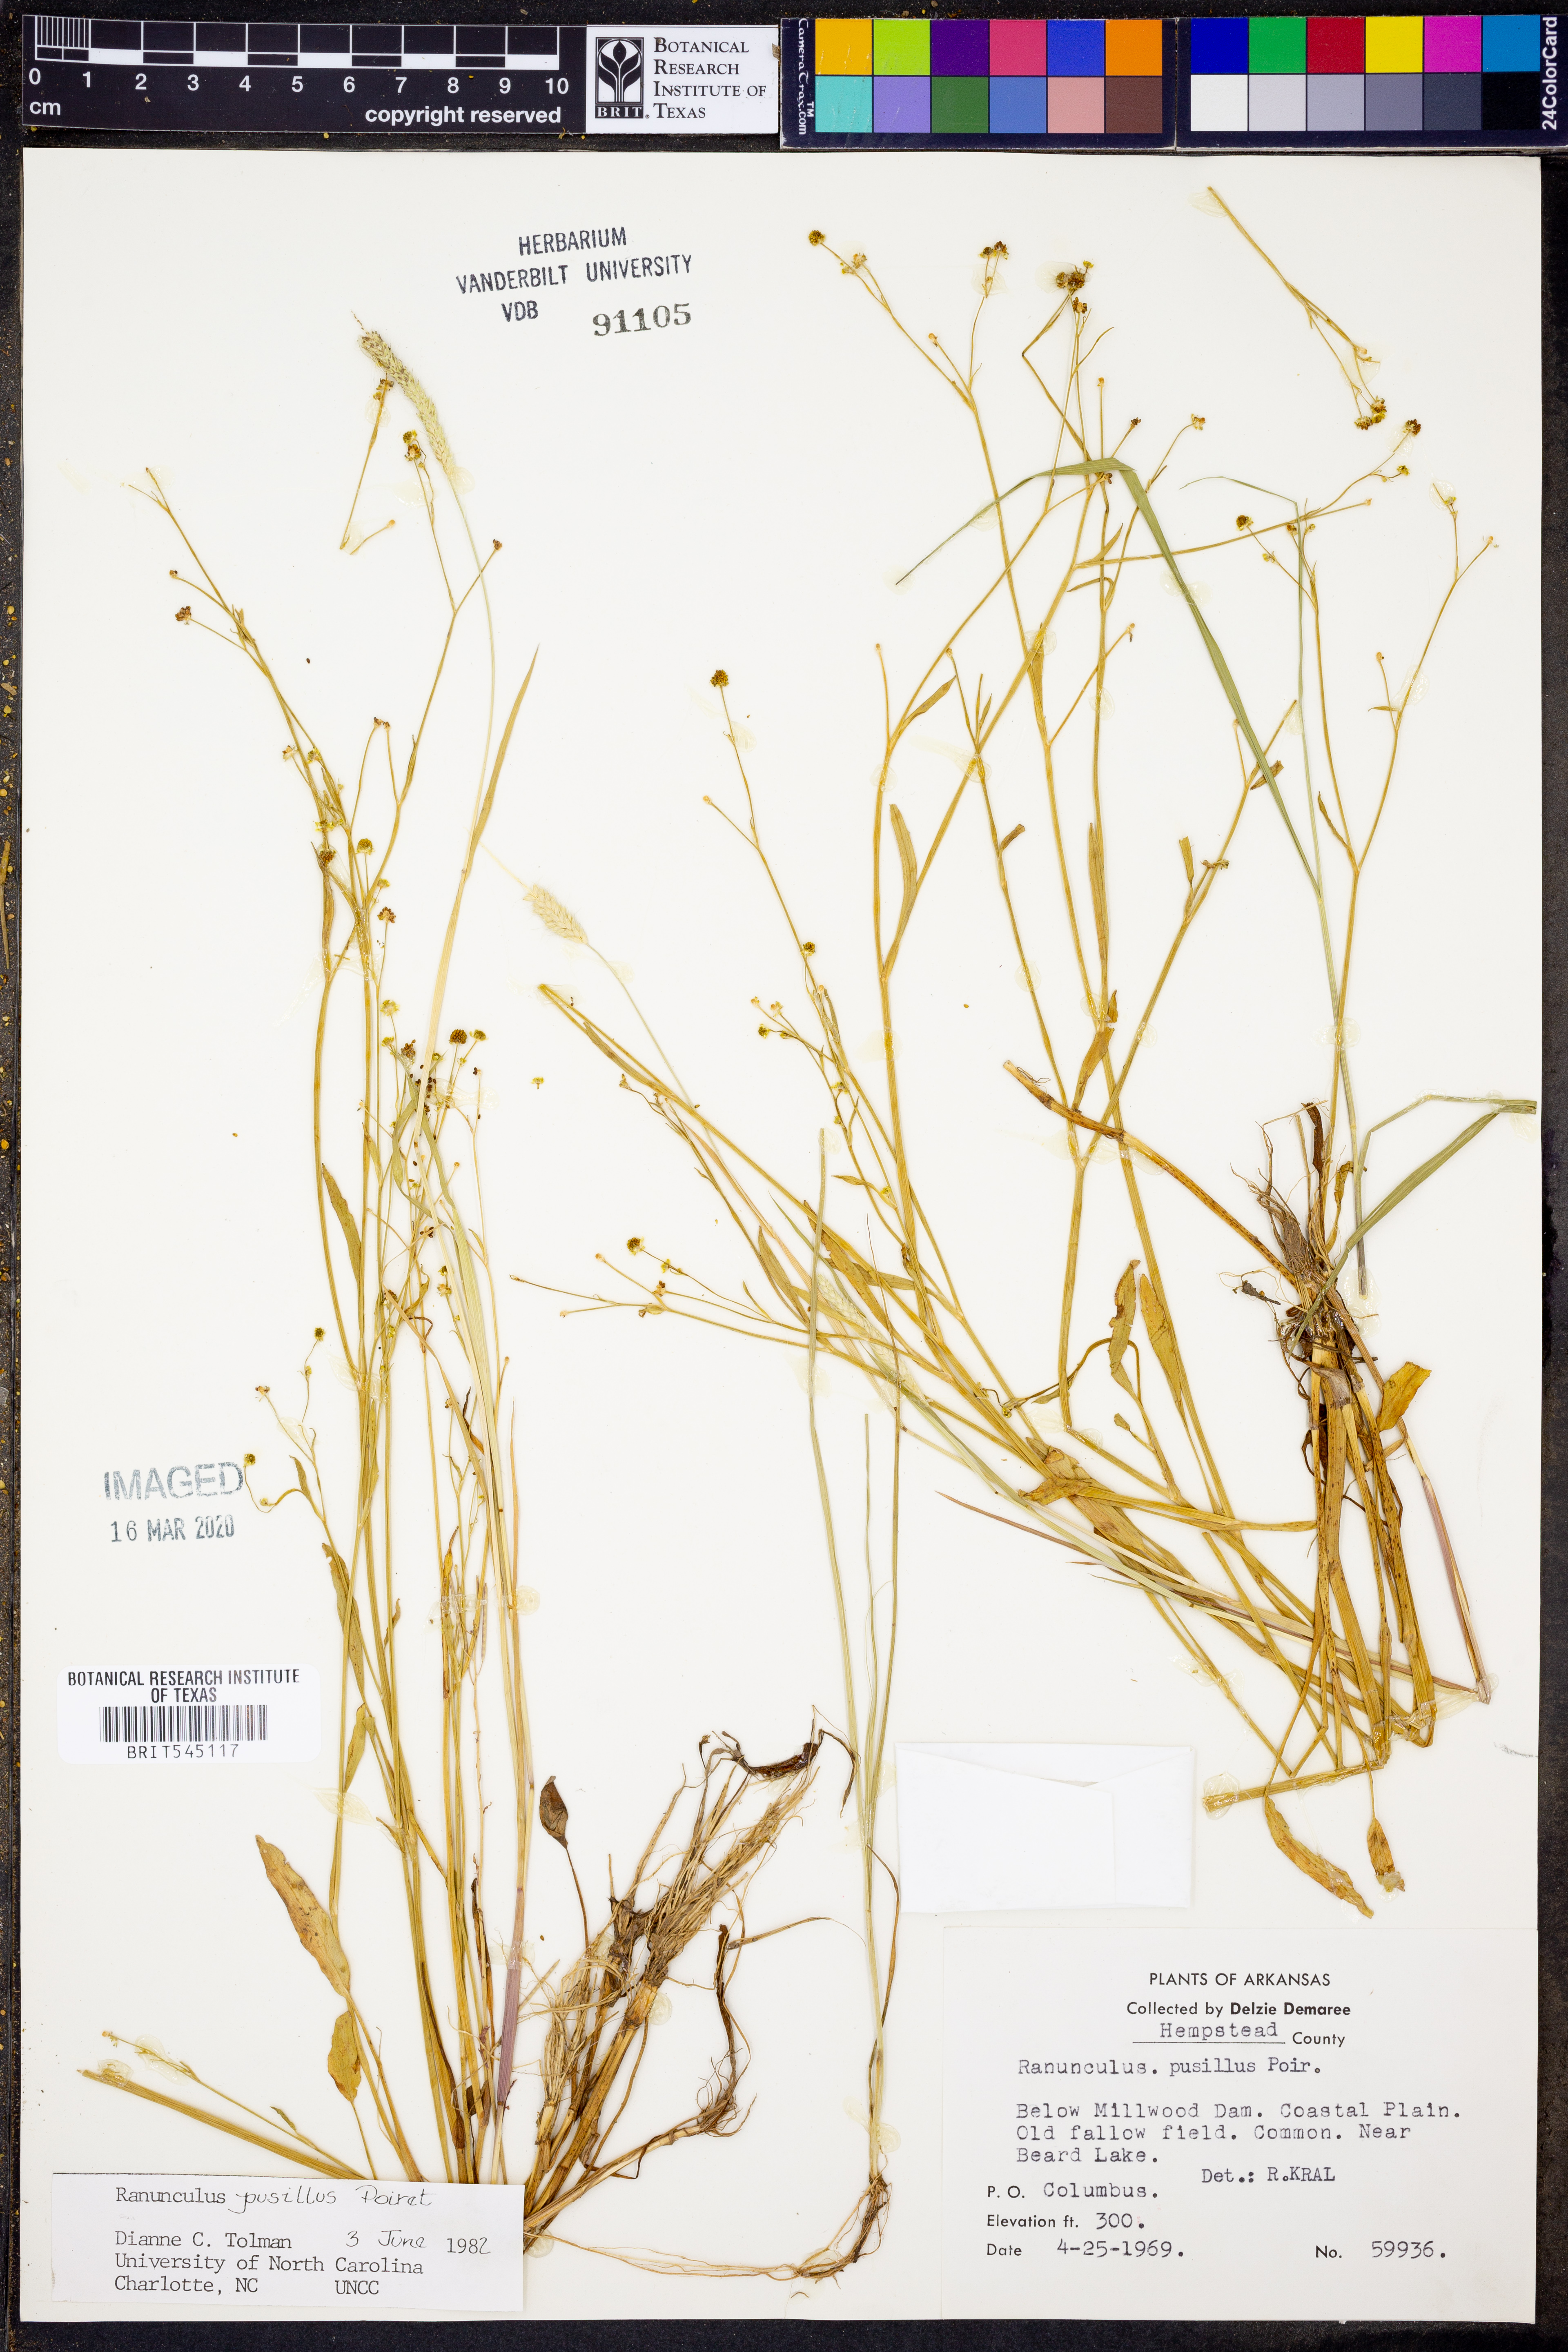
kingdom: Plantae
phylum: Tracheophyta
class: Magnoliopsida
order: Ranunculales
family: Ranunculaceae
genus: Ranunculus
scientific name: Ranunculus pusillus
